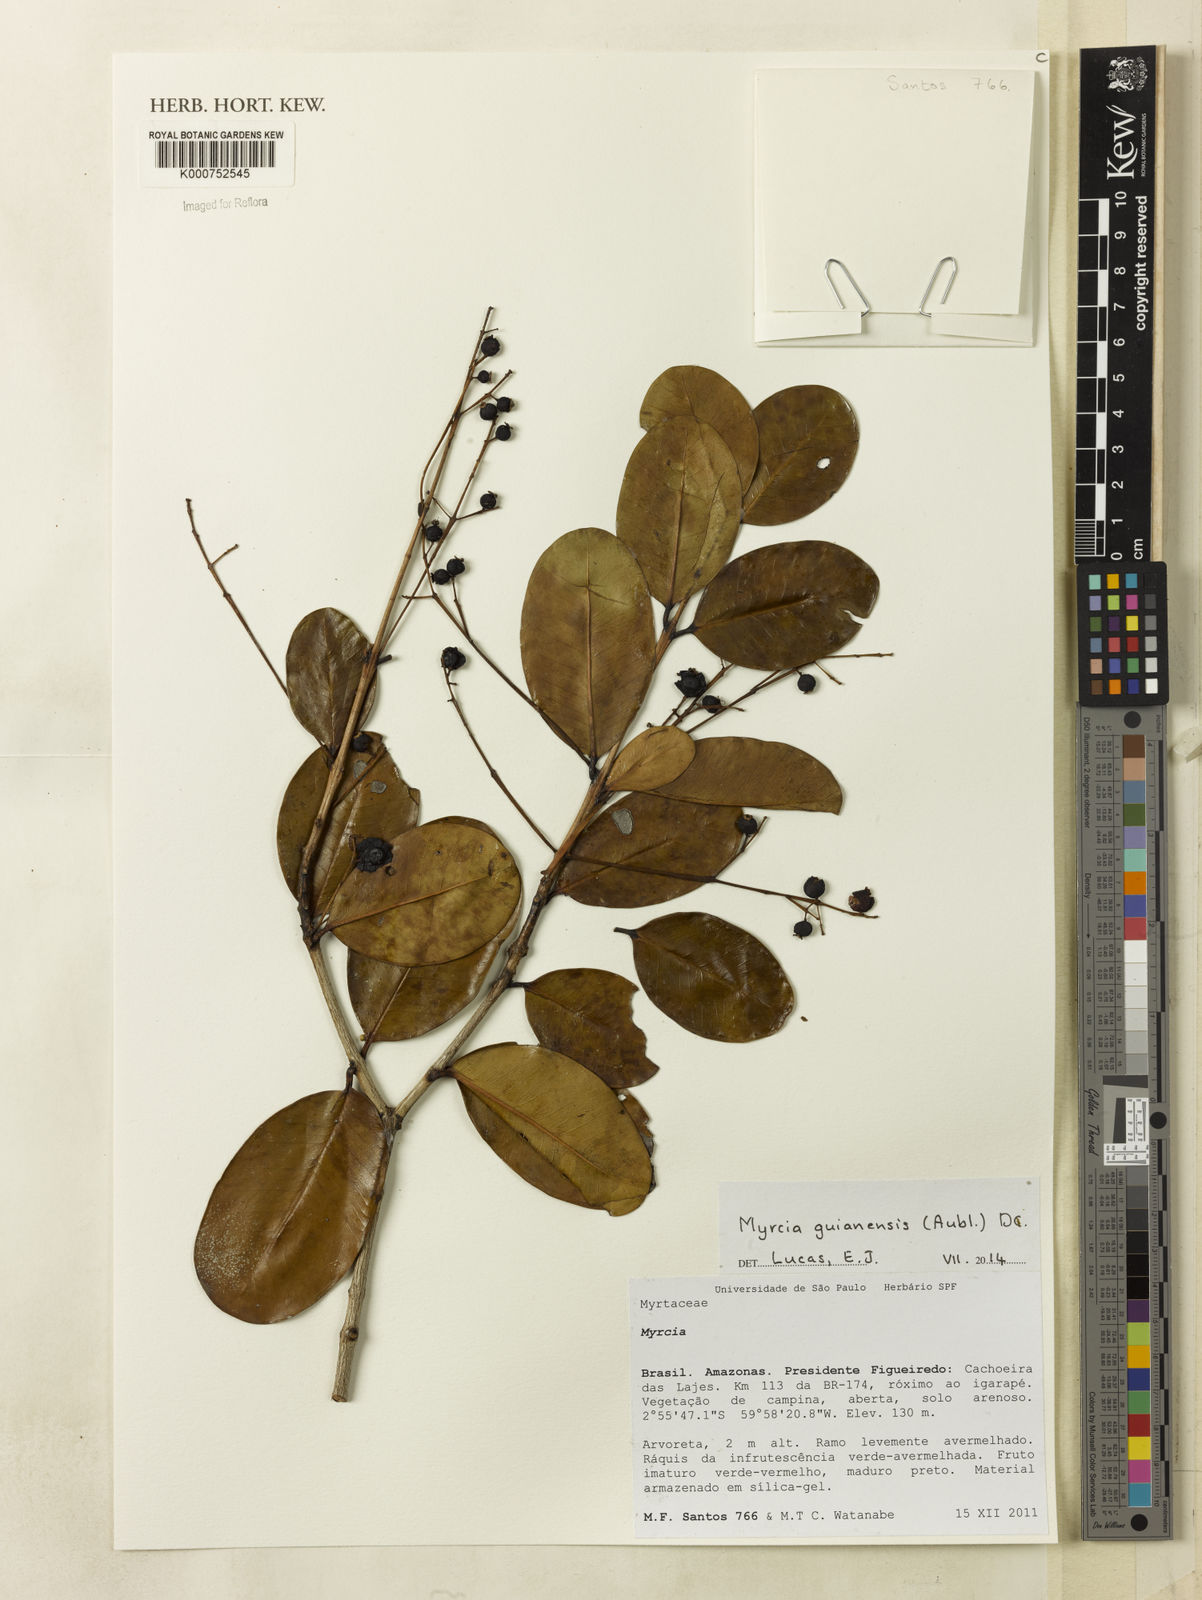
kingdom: Plantae
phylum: Tracheophyta
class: Magnoliopsida
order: Myrtales
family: Myrtaceae
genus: Myrcia
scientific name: Myrcia platyclada
